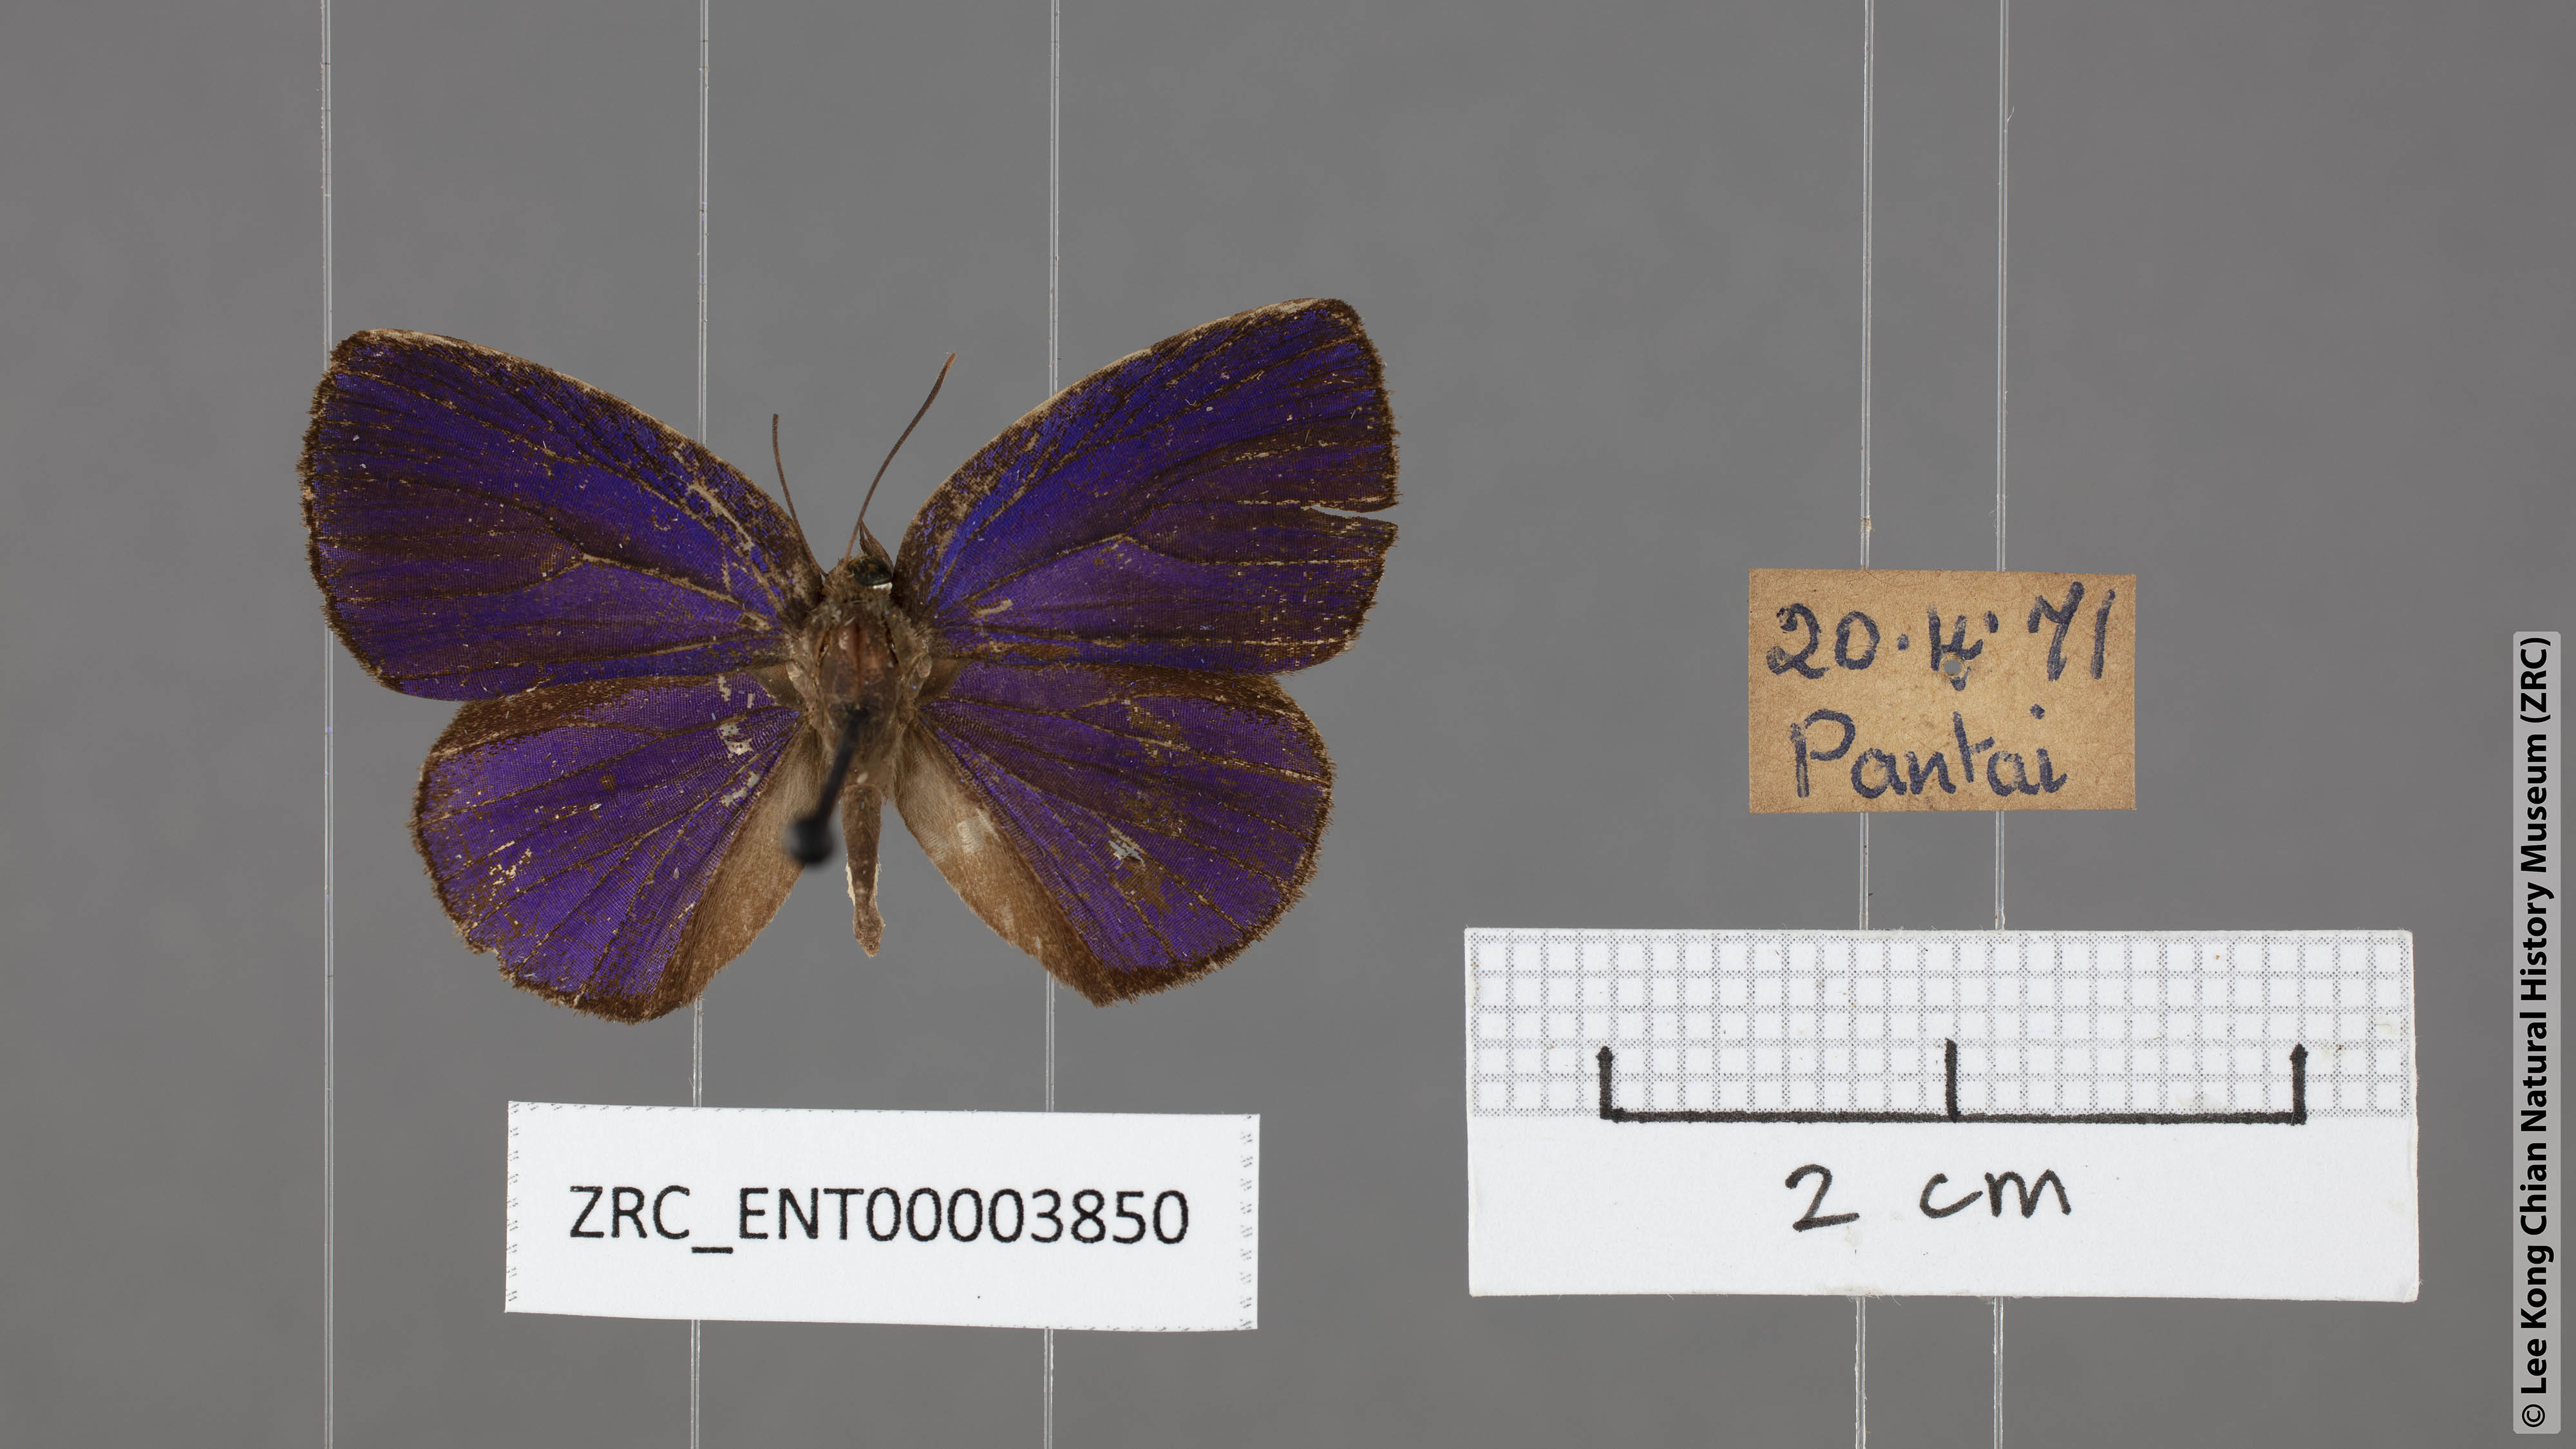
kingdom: Animalia
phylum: Arthropoda
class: Insecta
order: Lepidoptera
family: Lycaenidae
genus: Arhopala
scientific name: Arhopala antimuta
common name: Small tailless oakblue
